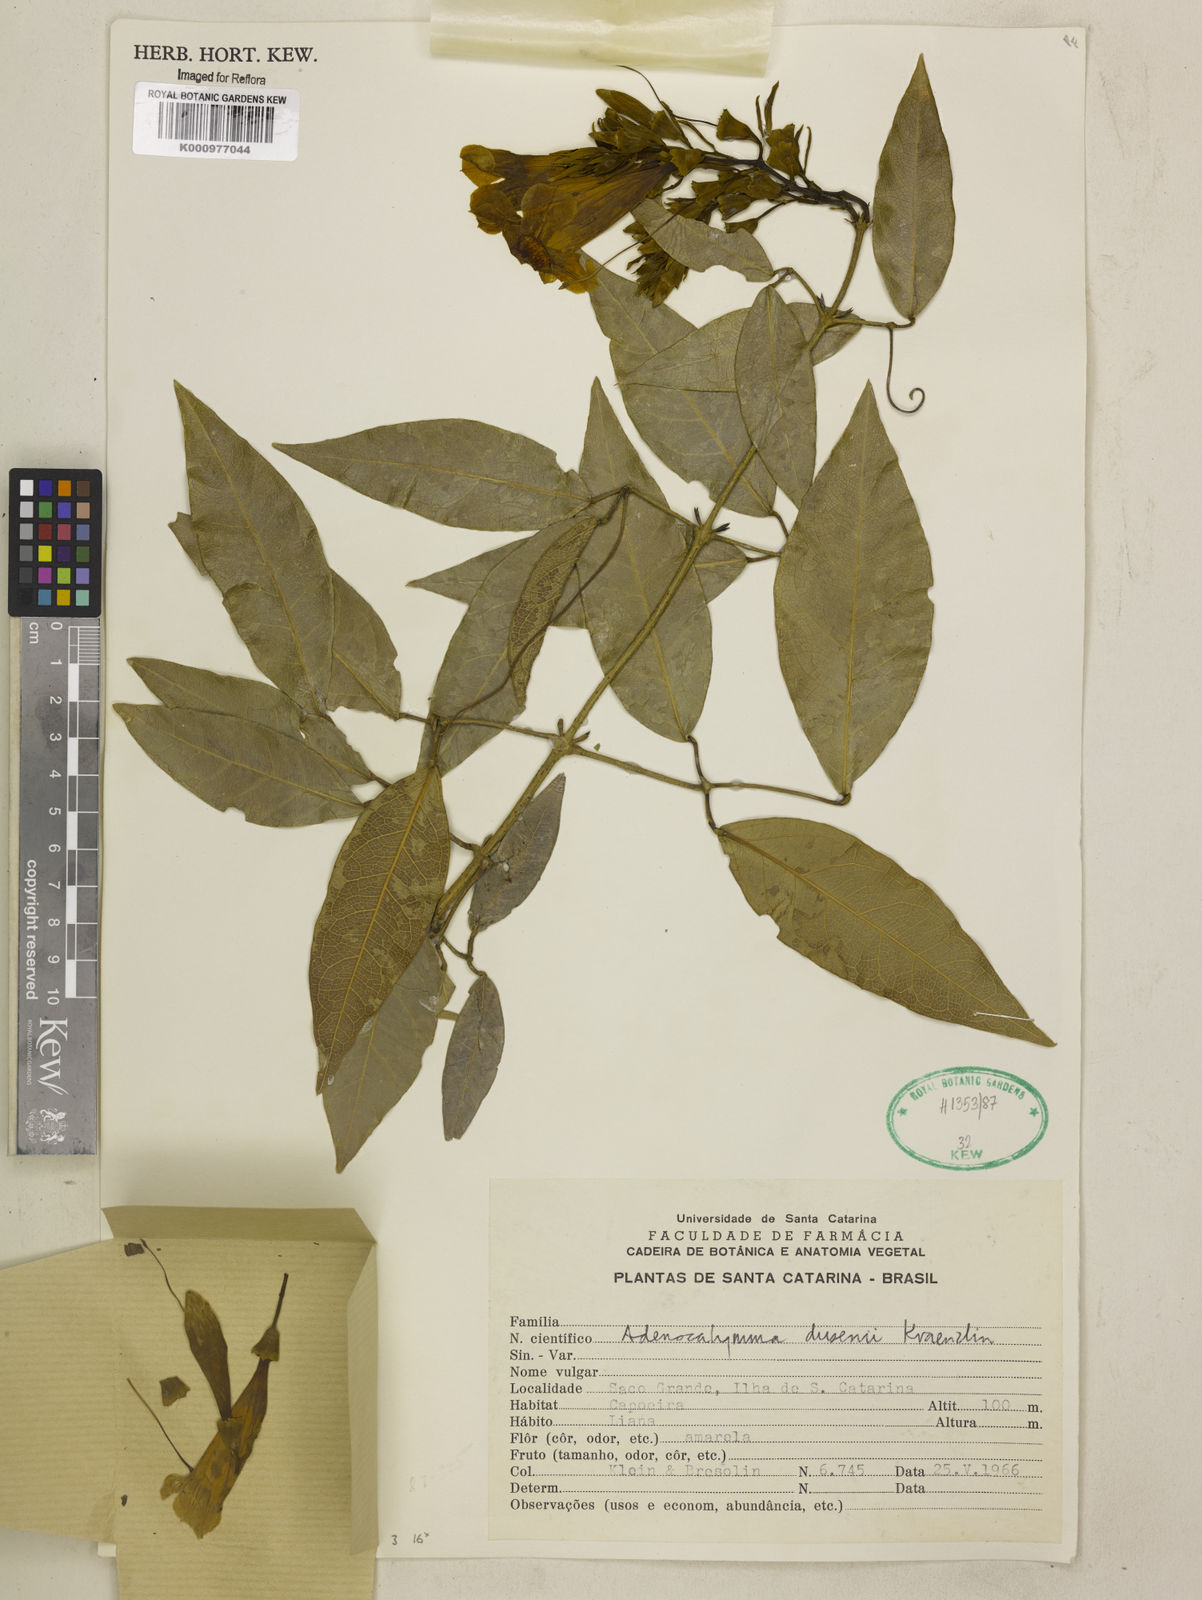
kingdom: Plantae
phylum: Tracheophyta
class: Magnoliopsida
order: Lamiales
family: Bignoniaceae
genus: Adenocalymma
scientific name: Adenocalymma dusenii
